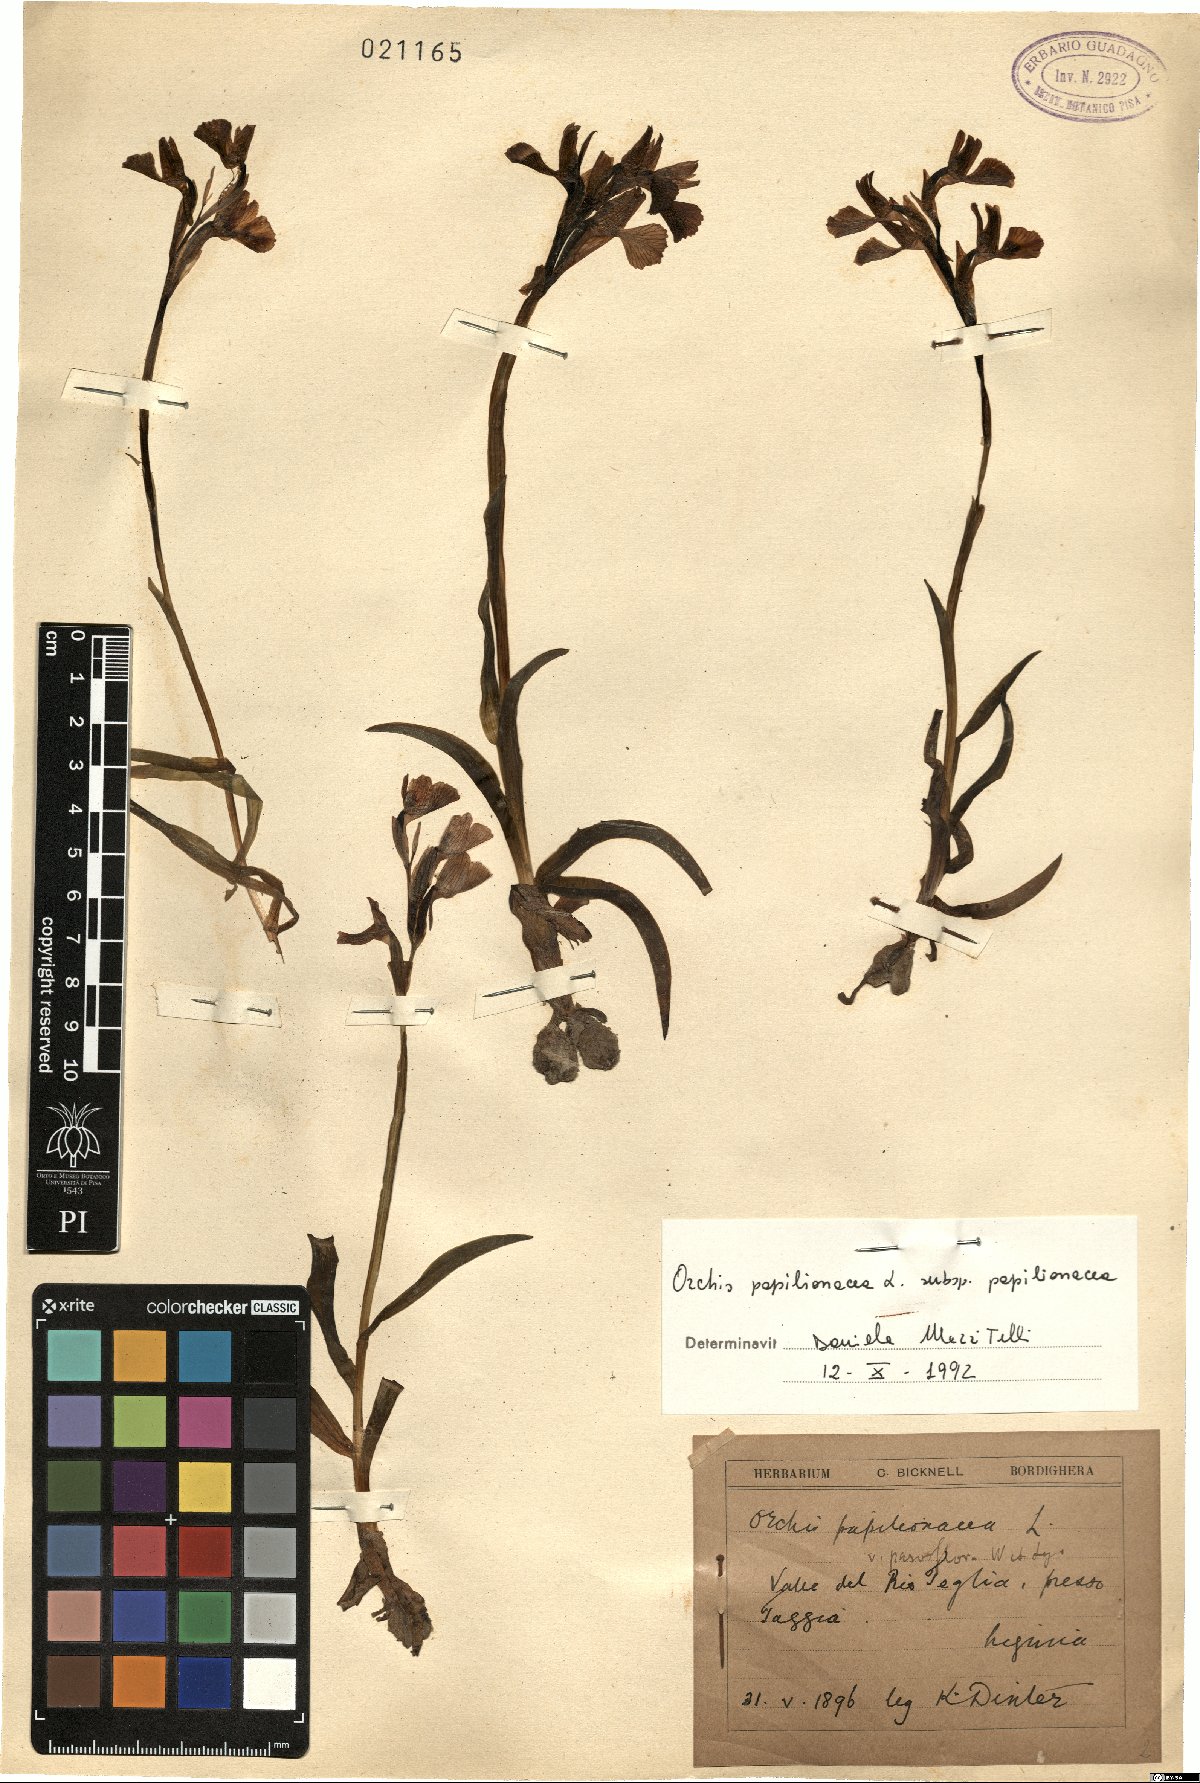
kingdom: Plantae
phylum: Tracheophyta
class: Liliopsida
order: Asparagales
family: Orchidaceae
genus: Anacamptis
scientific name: Anacamptis papilionacea
